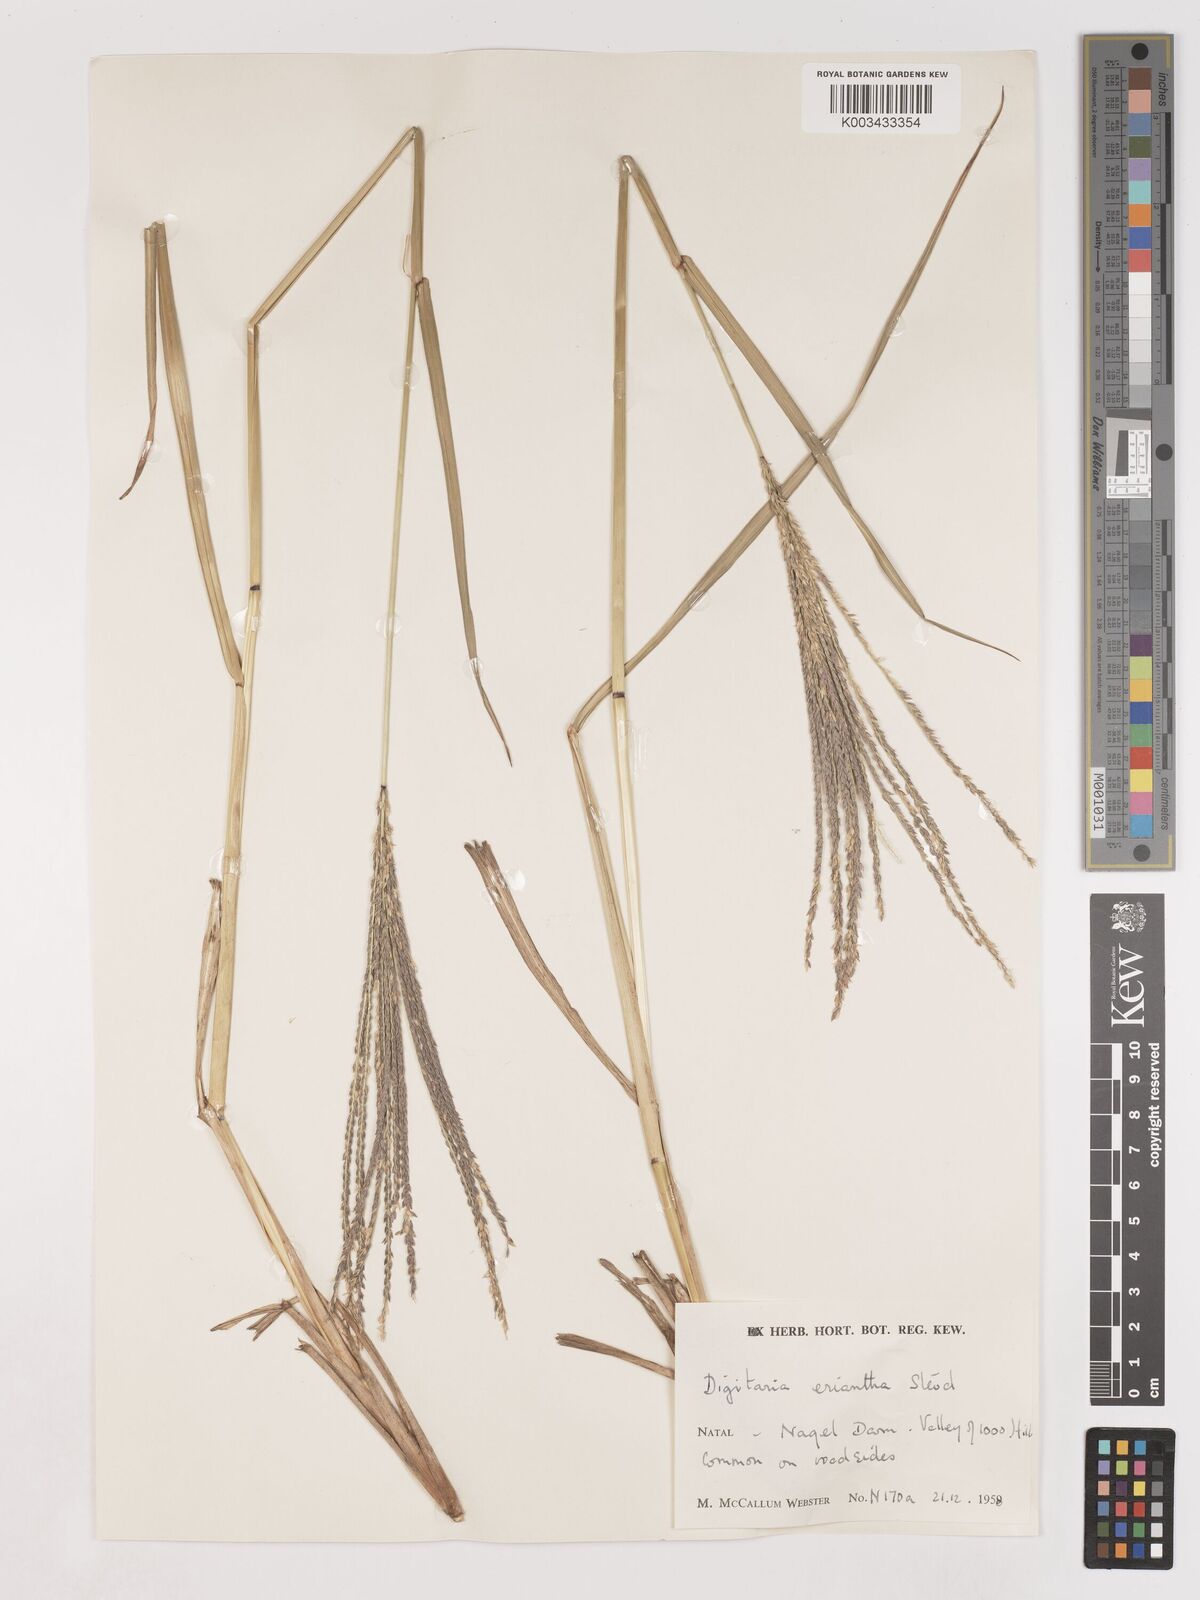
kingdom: Plantae
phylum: Tracheophyta
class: Liliopsida
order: Poales
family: Poaceae
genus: Digitaria
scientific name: Digitaria eriantha
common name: Digitgrass
